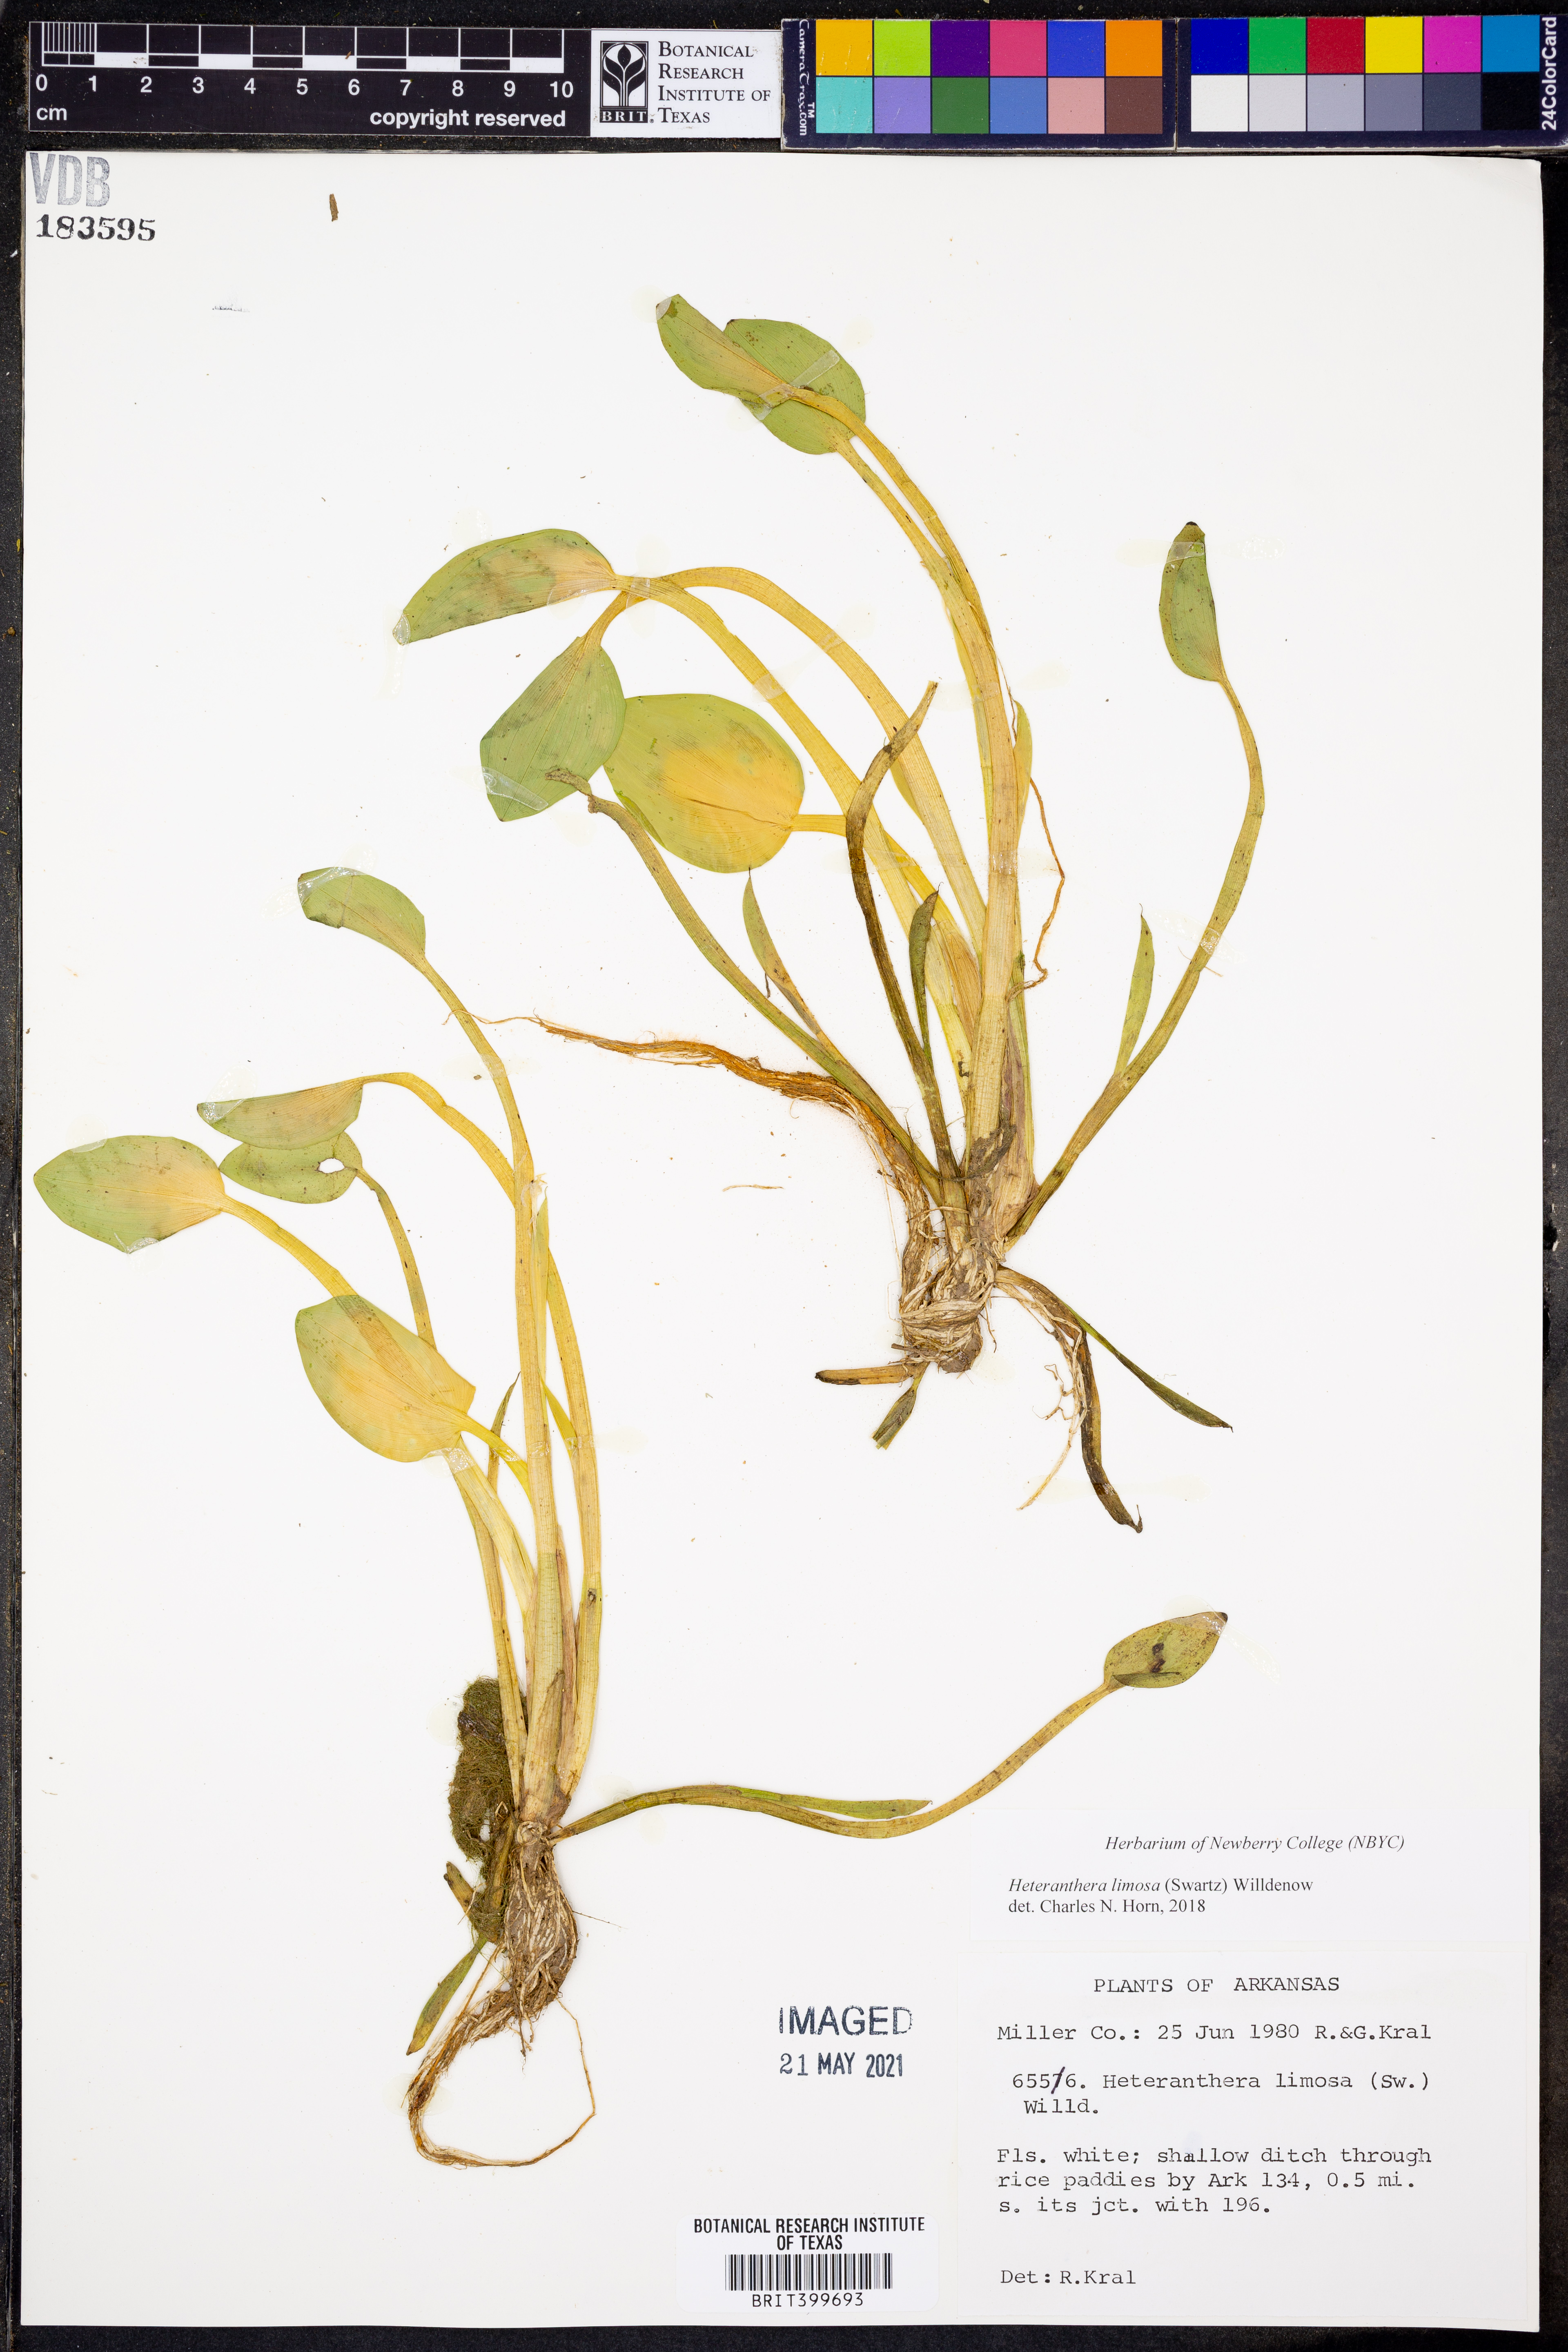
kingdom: Plantae
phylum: Tracheophyta
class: Liliopsida
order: Commelinales
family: Pontederiaceae
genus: Heteranthera
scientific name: Heteranthera limosa
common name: Blue mud-plantain
